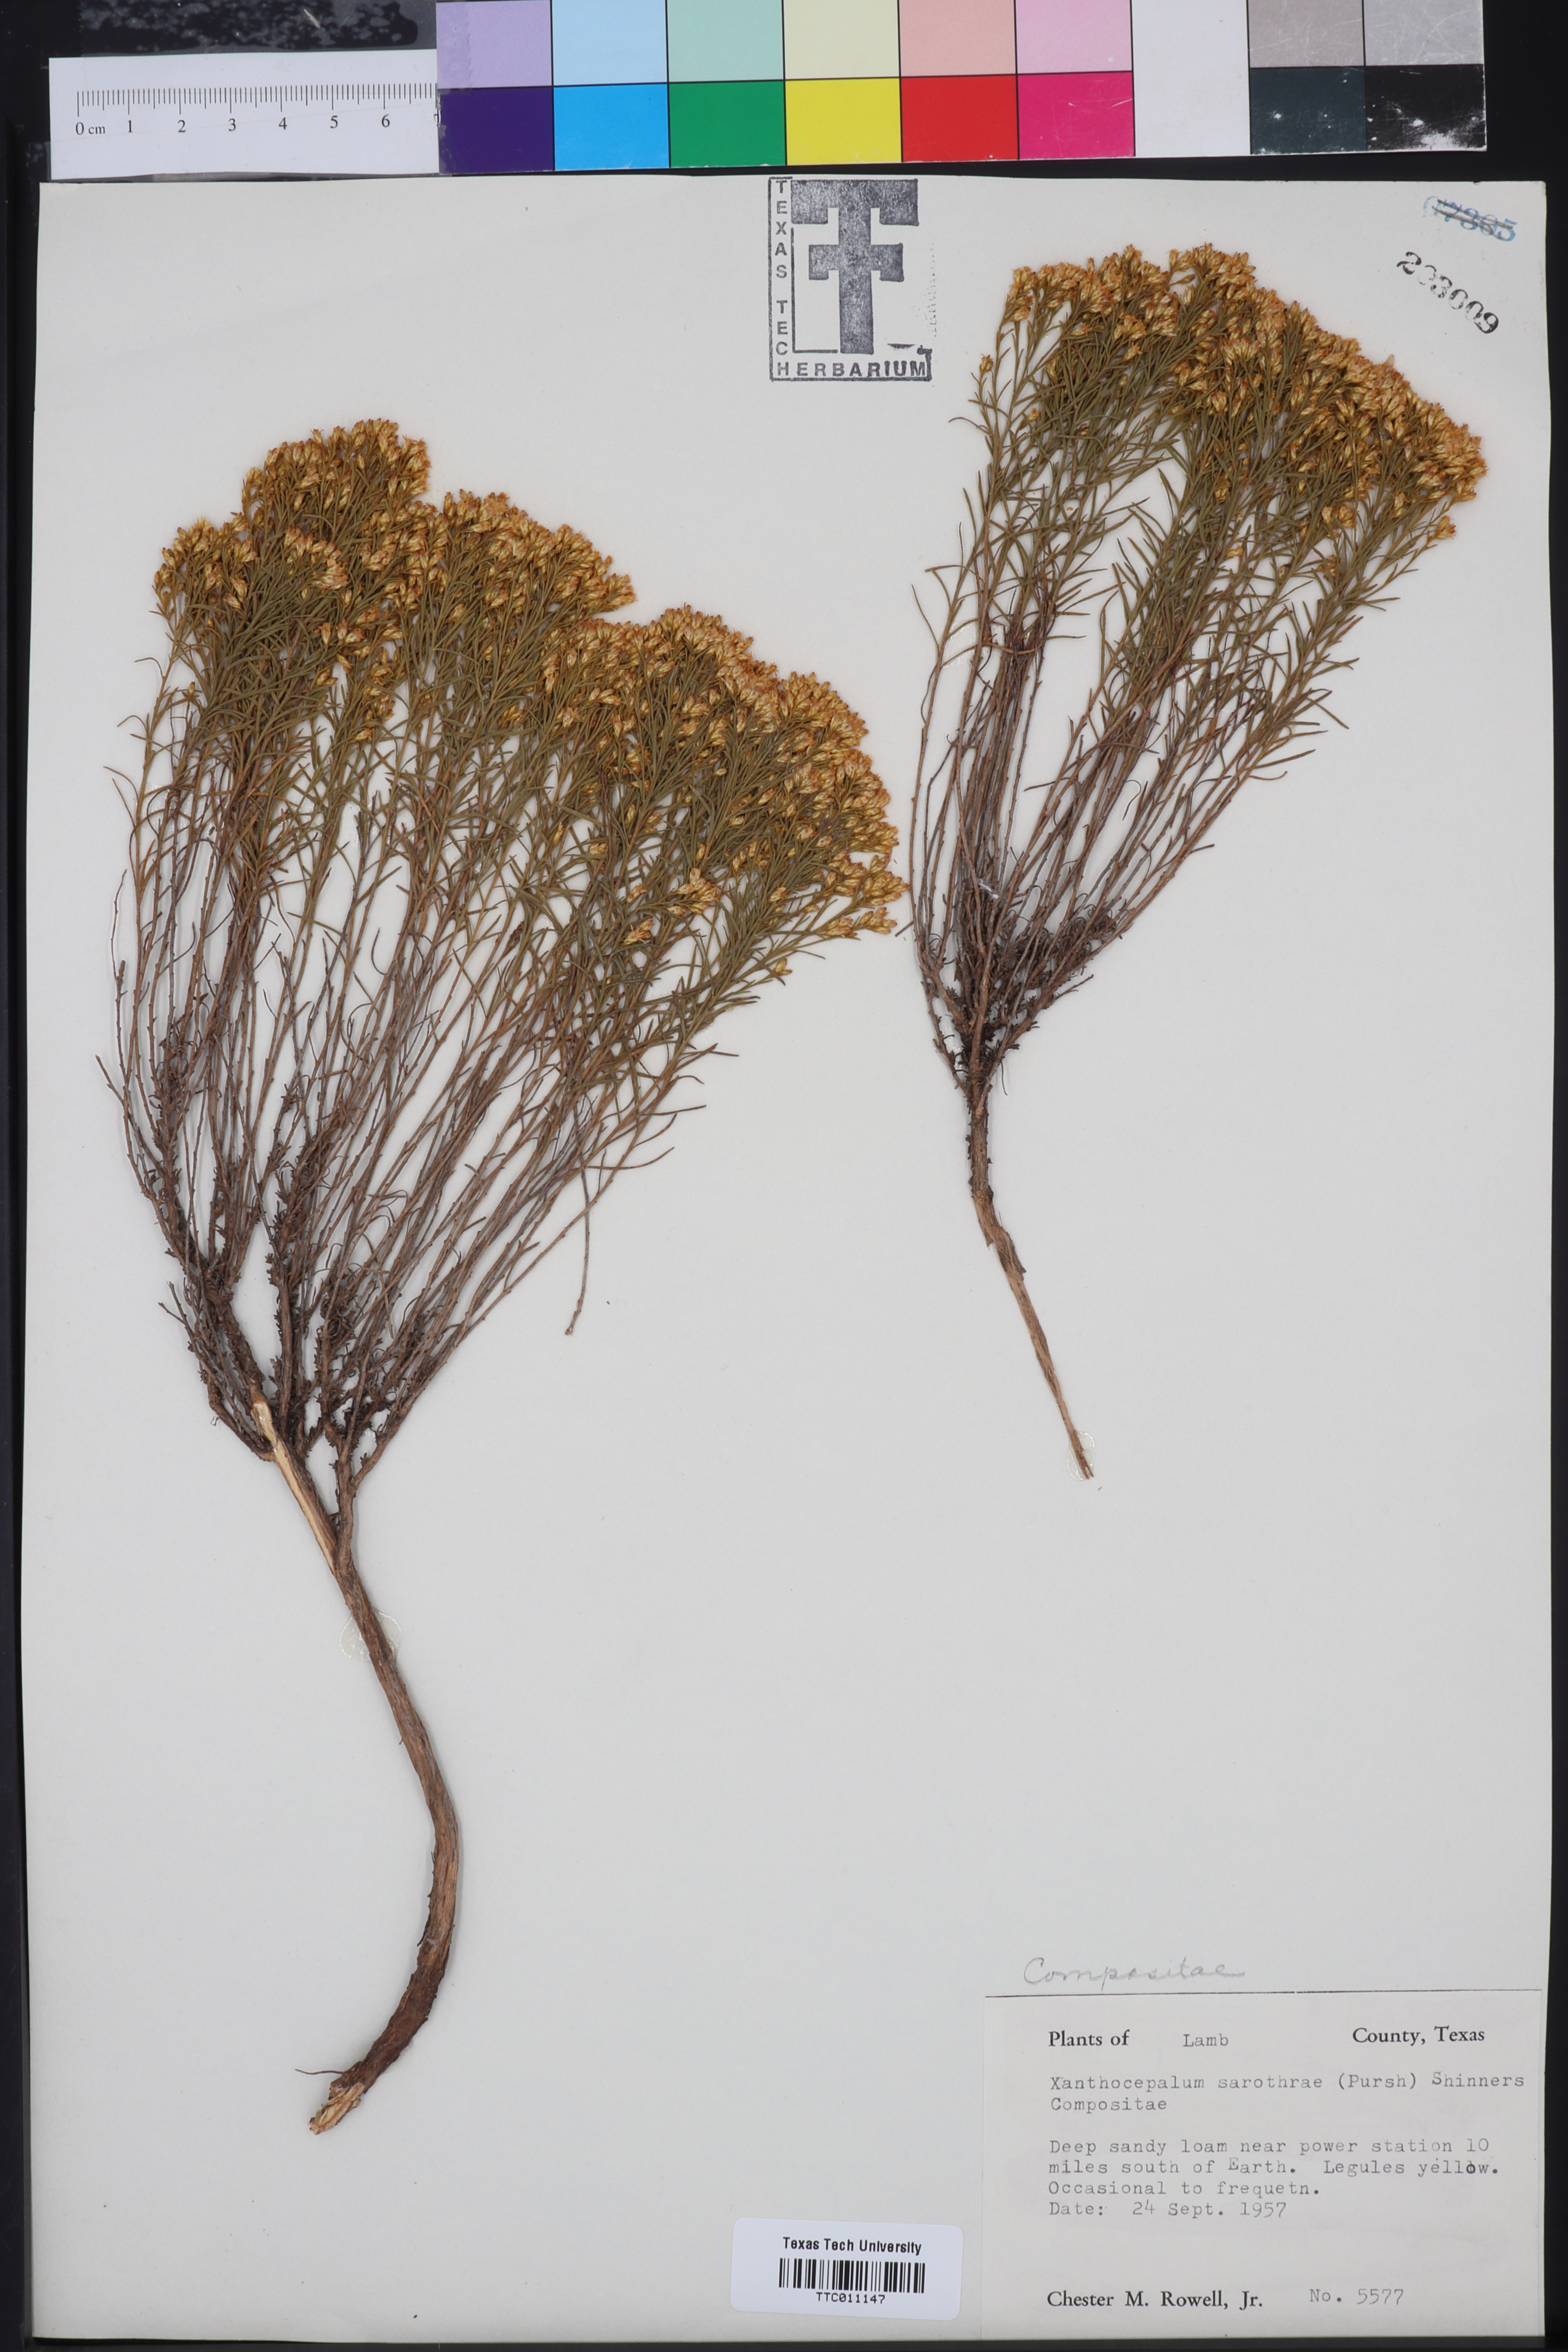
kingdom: Plantae
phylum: Tracheophyta
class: Magnoliopsida
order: Asterales
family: Asteraceae
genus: Gutierrezia
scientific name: Gutierrezia sarothrae
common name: Broom snakeweed
